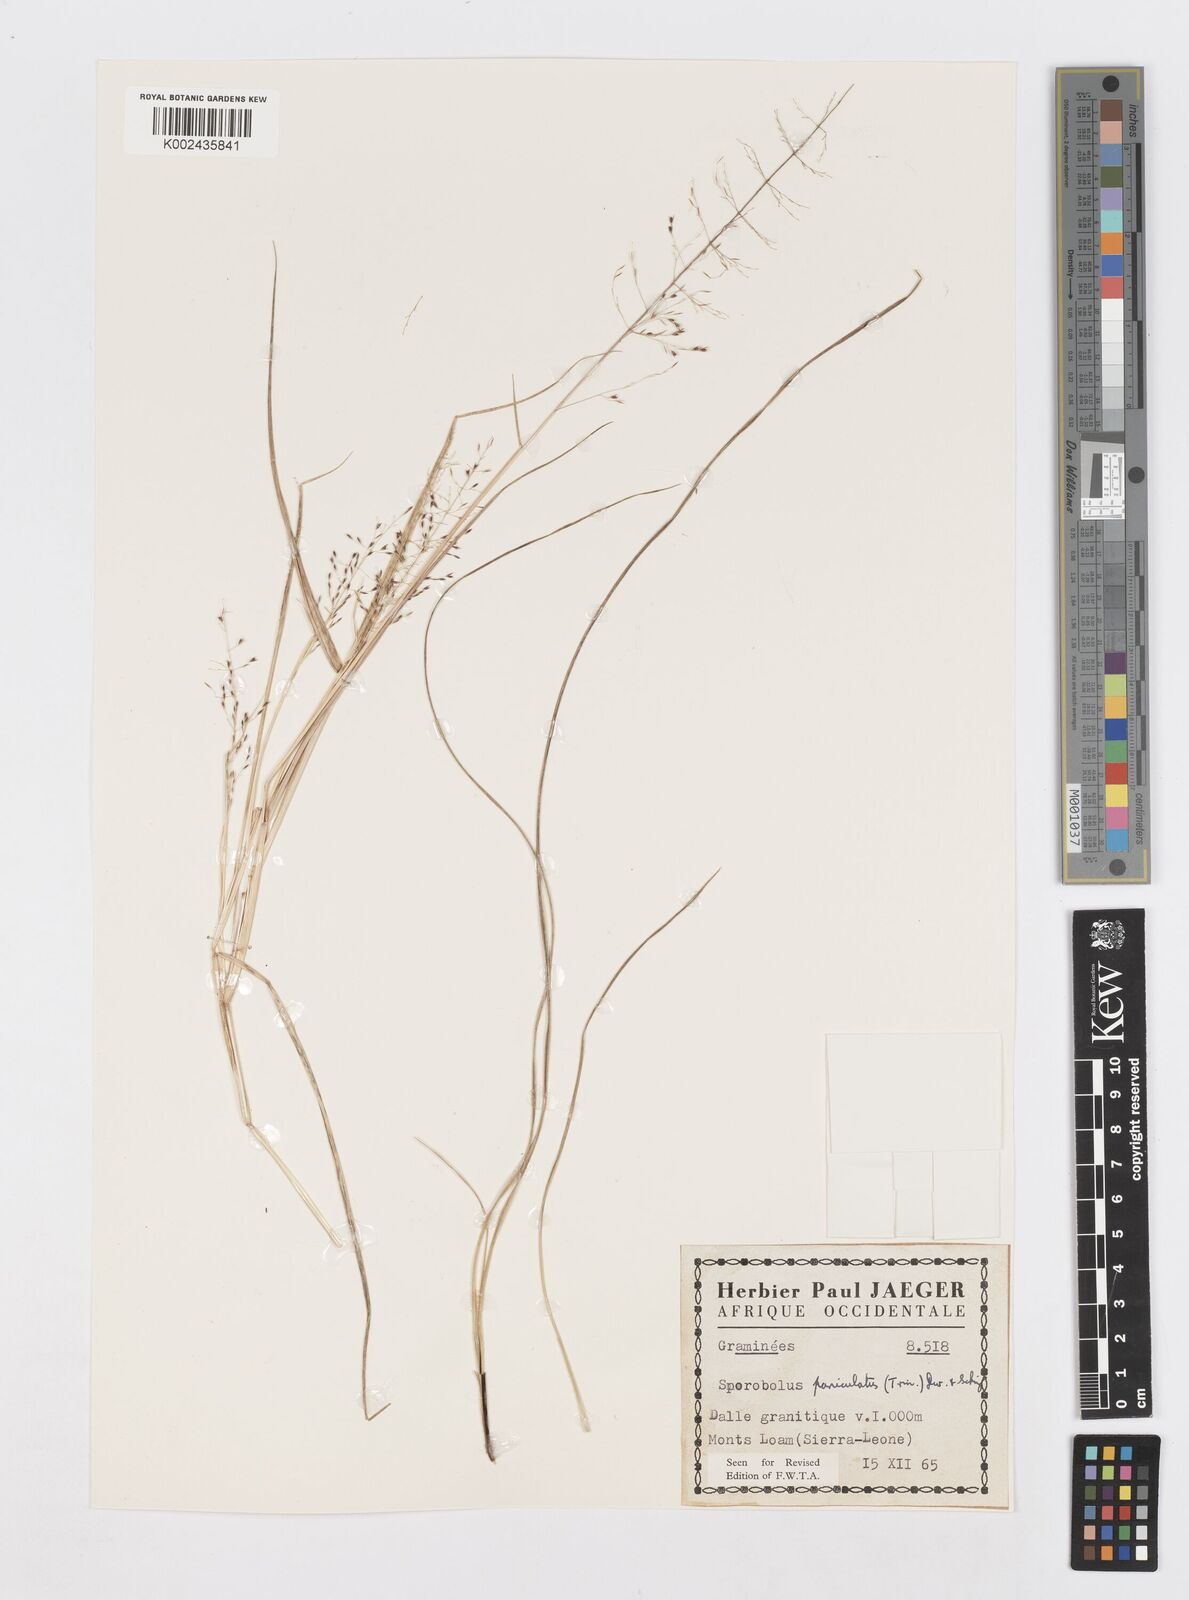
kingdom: Plantae
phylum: Tracheophyta
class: Liliopsida
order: Poales
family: Poaceae
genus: Sporobolus
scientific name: Sporobolus paniculatus
